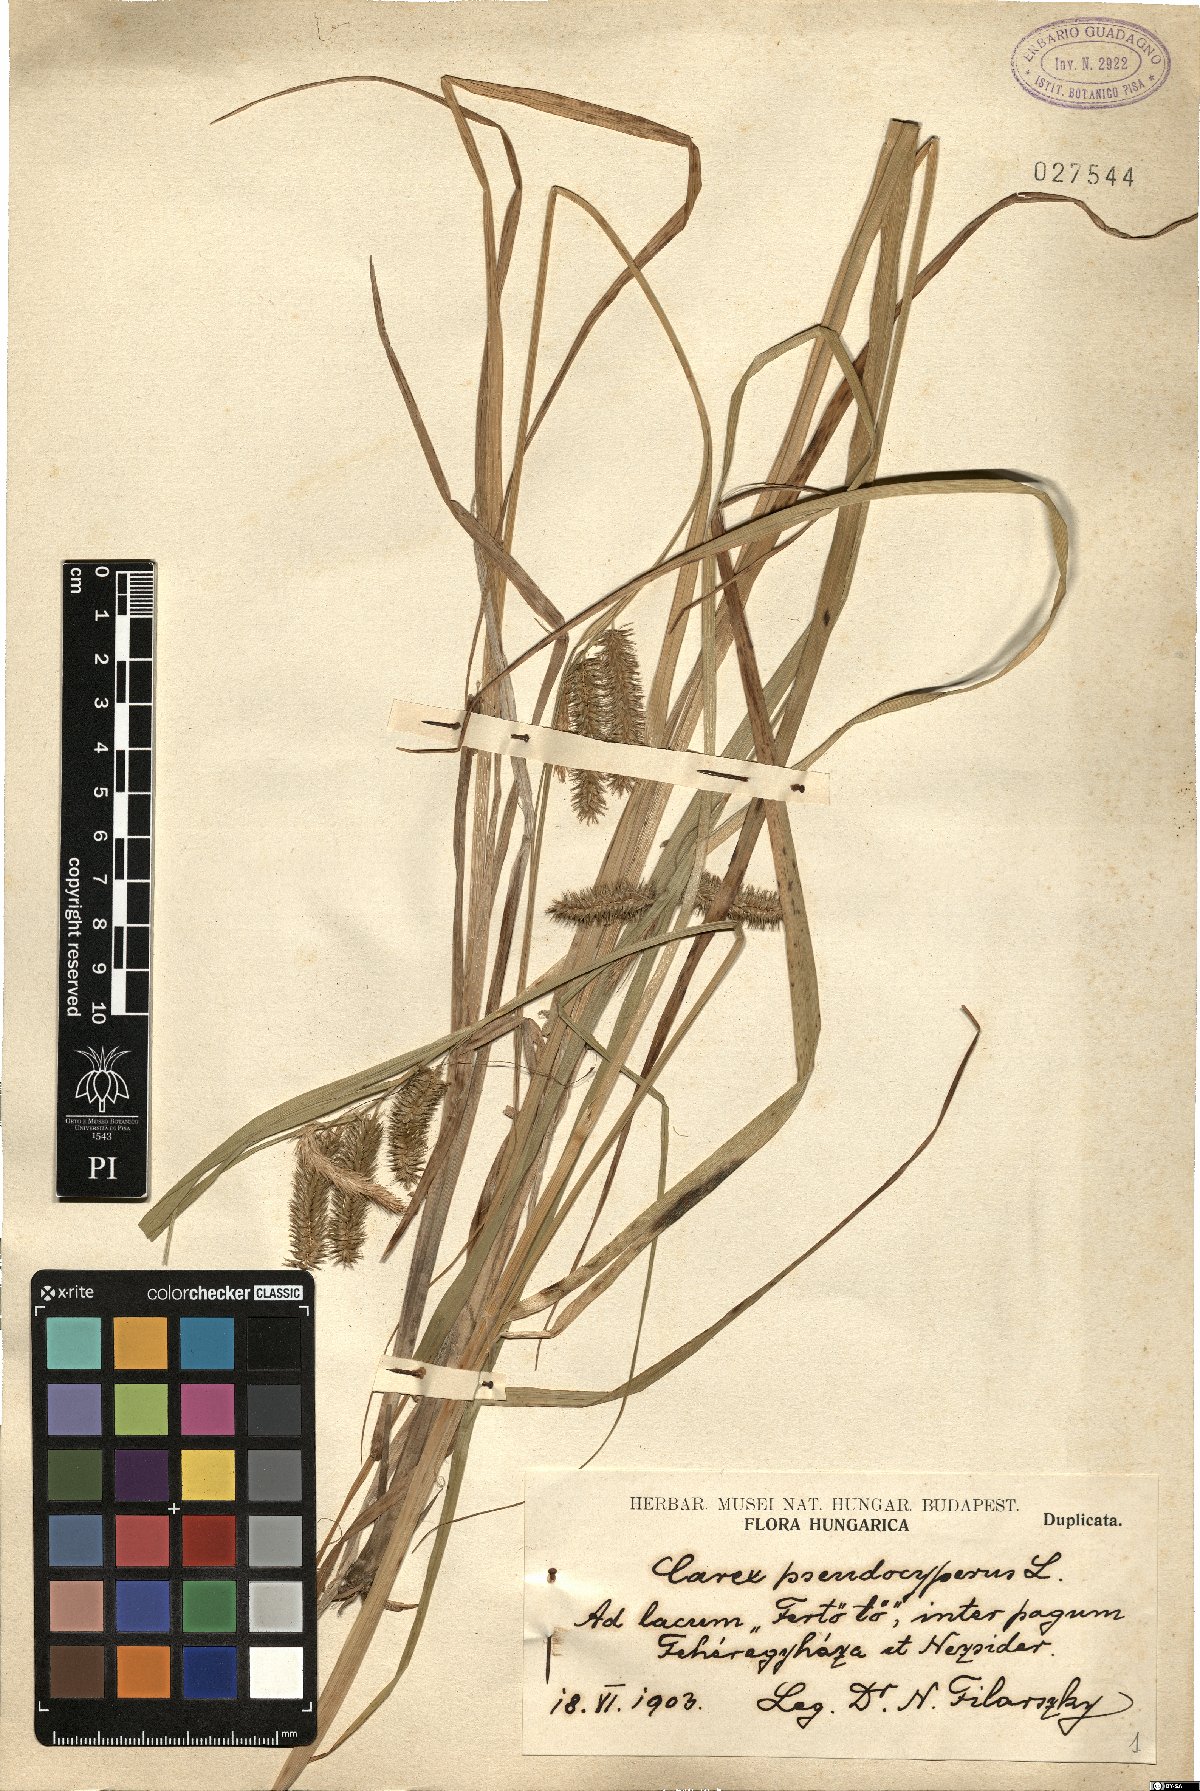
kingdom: Plantae
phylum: Tracheophyta
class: Liliopsida
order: Poales
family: Cyperaceae
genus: Carex
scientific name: Carex pseudocyperus
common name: Cyperus sedge
